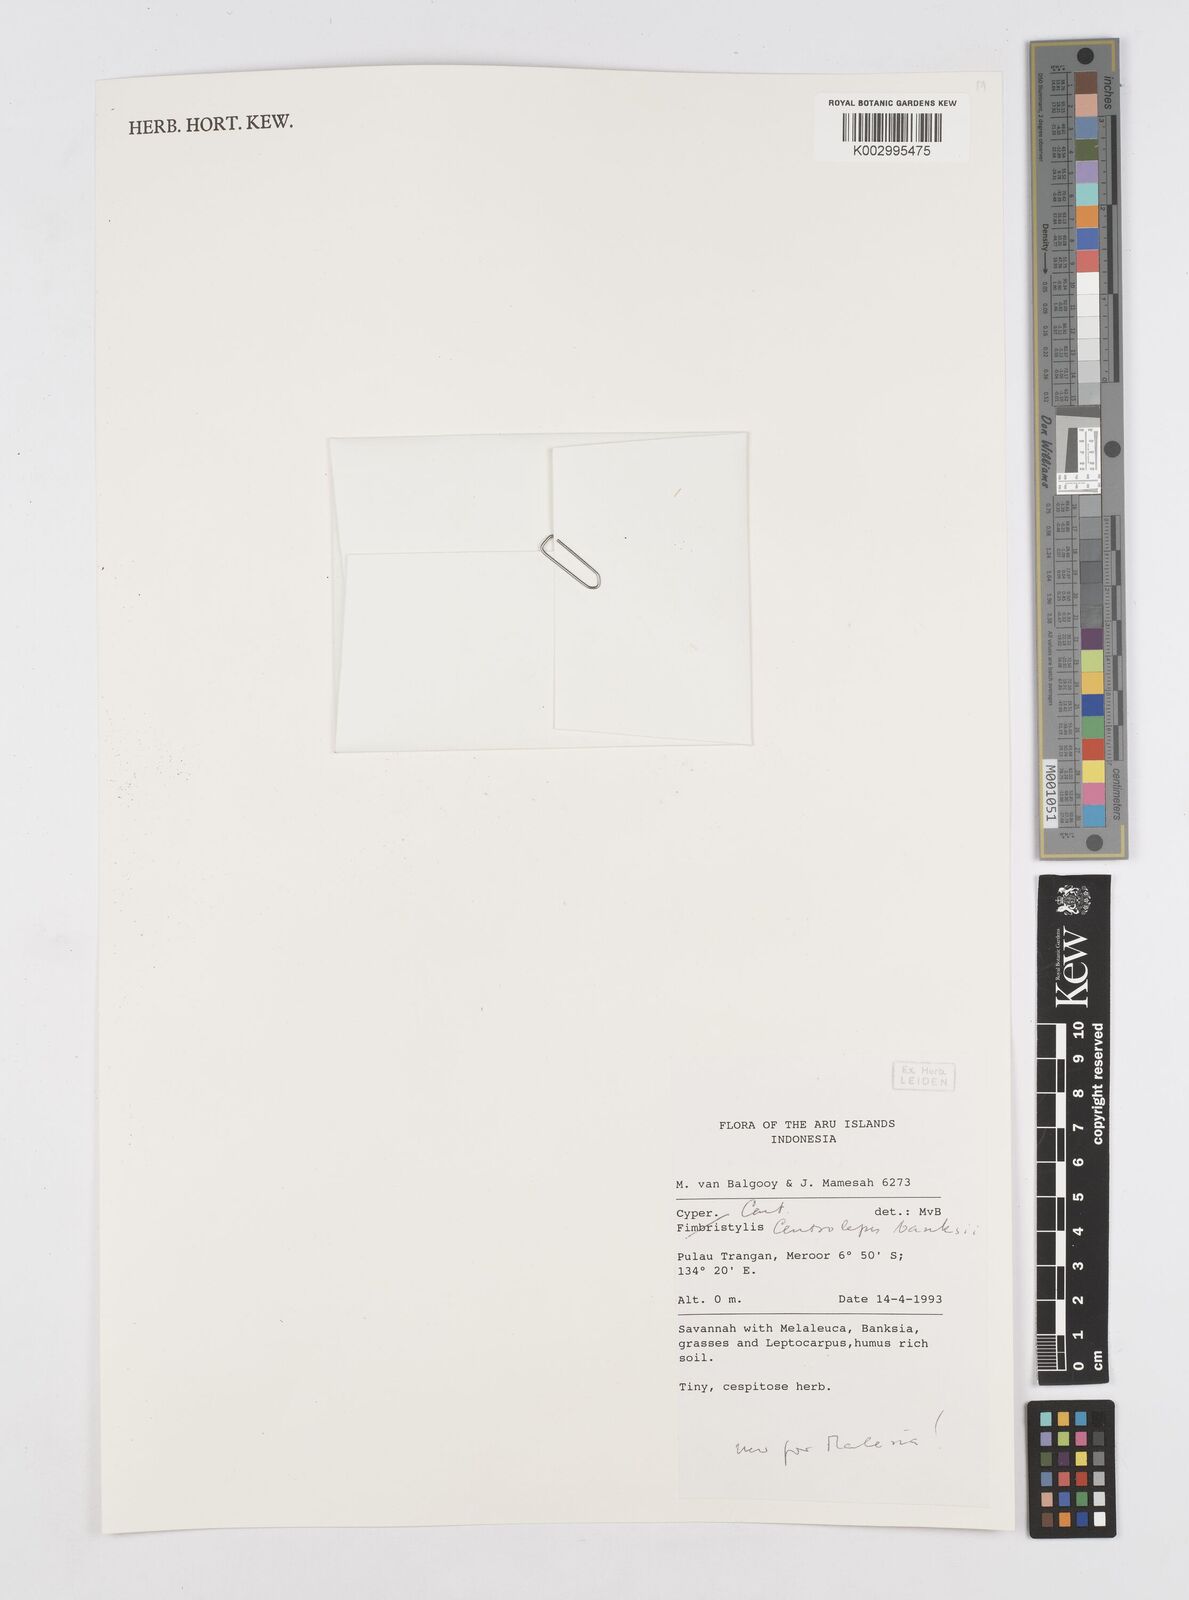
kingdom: Plantae
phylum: Tracheophyta
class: Liliopsida
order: Poales
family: Restionaceae
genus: Centrolepis
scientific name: Centrolepis banksii
